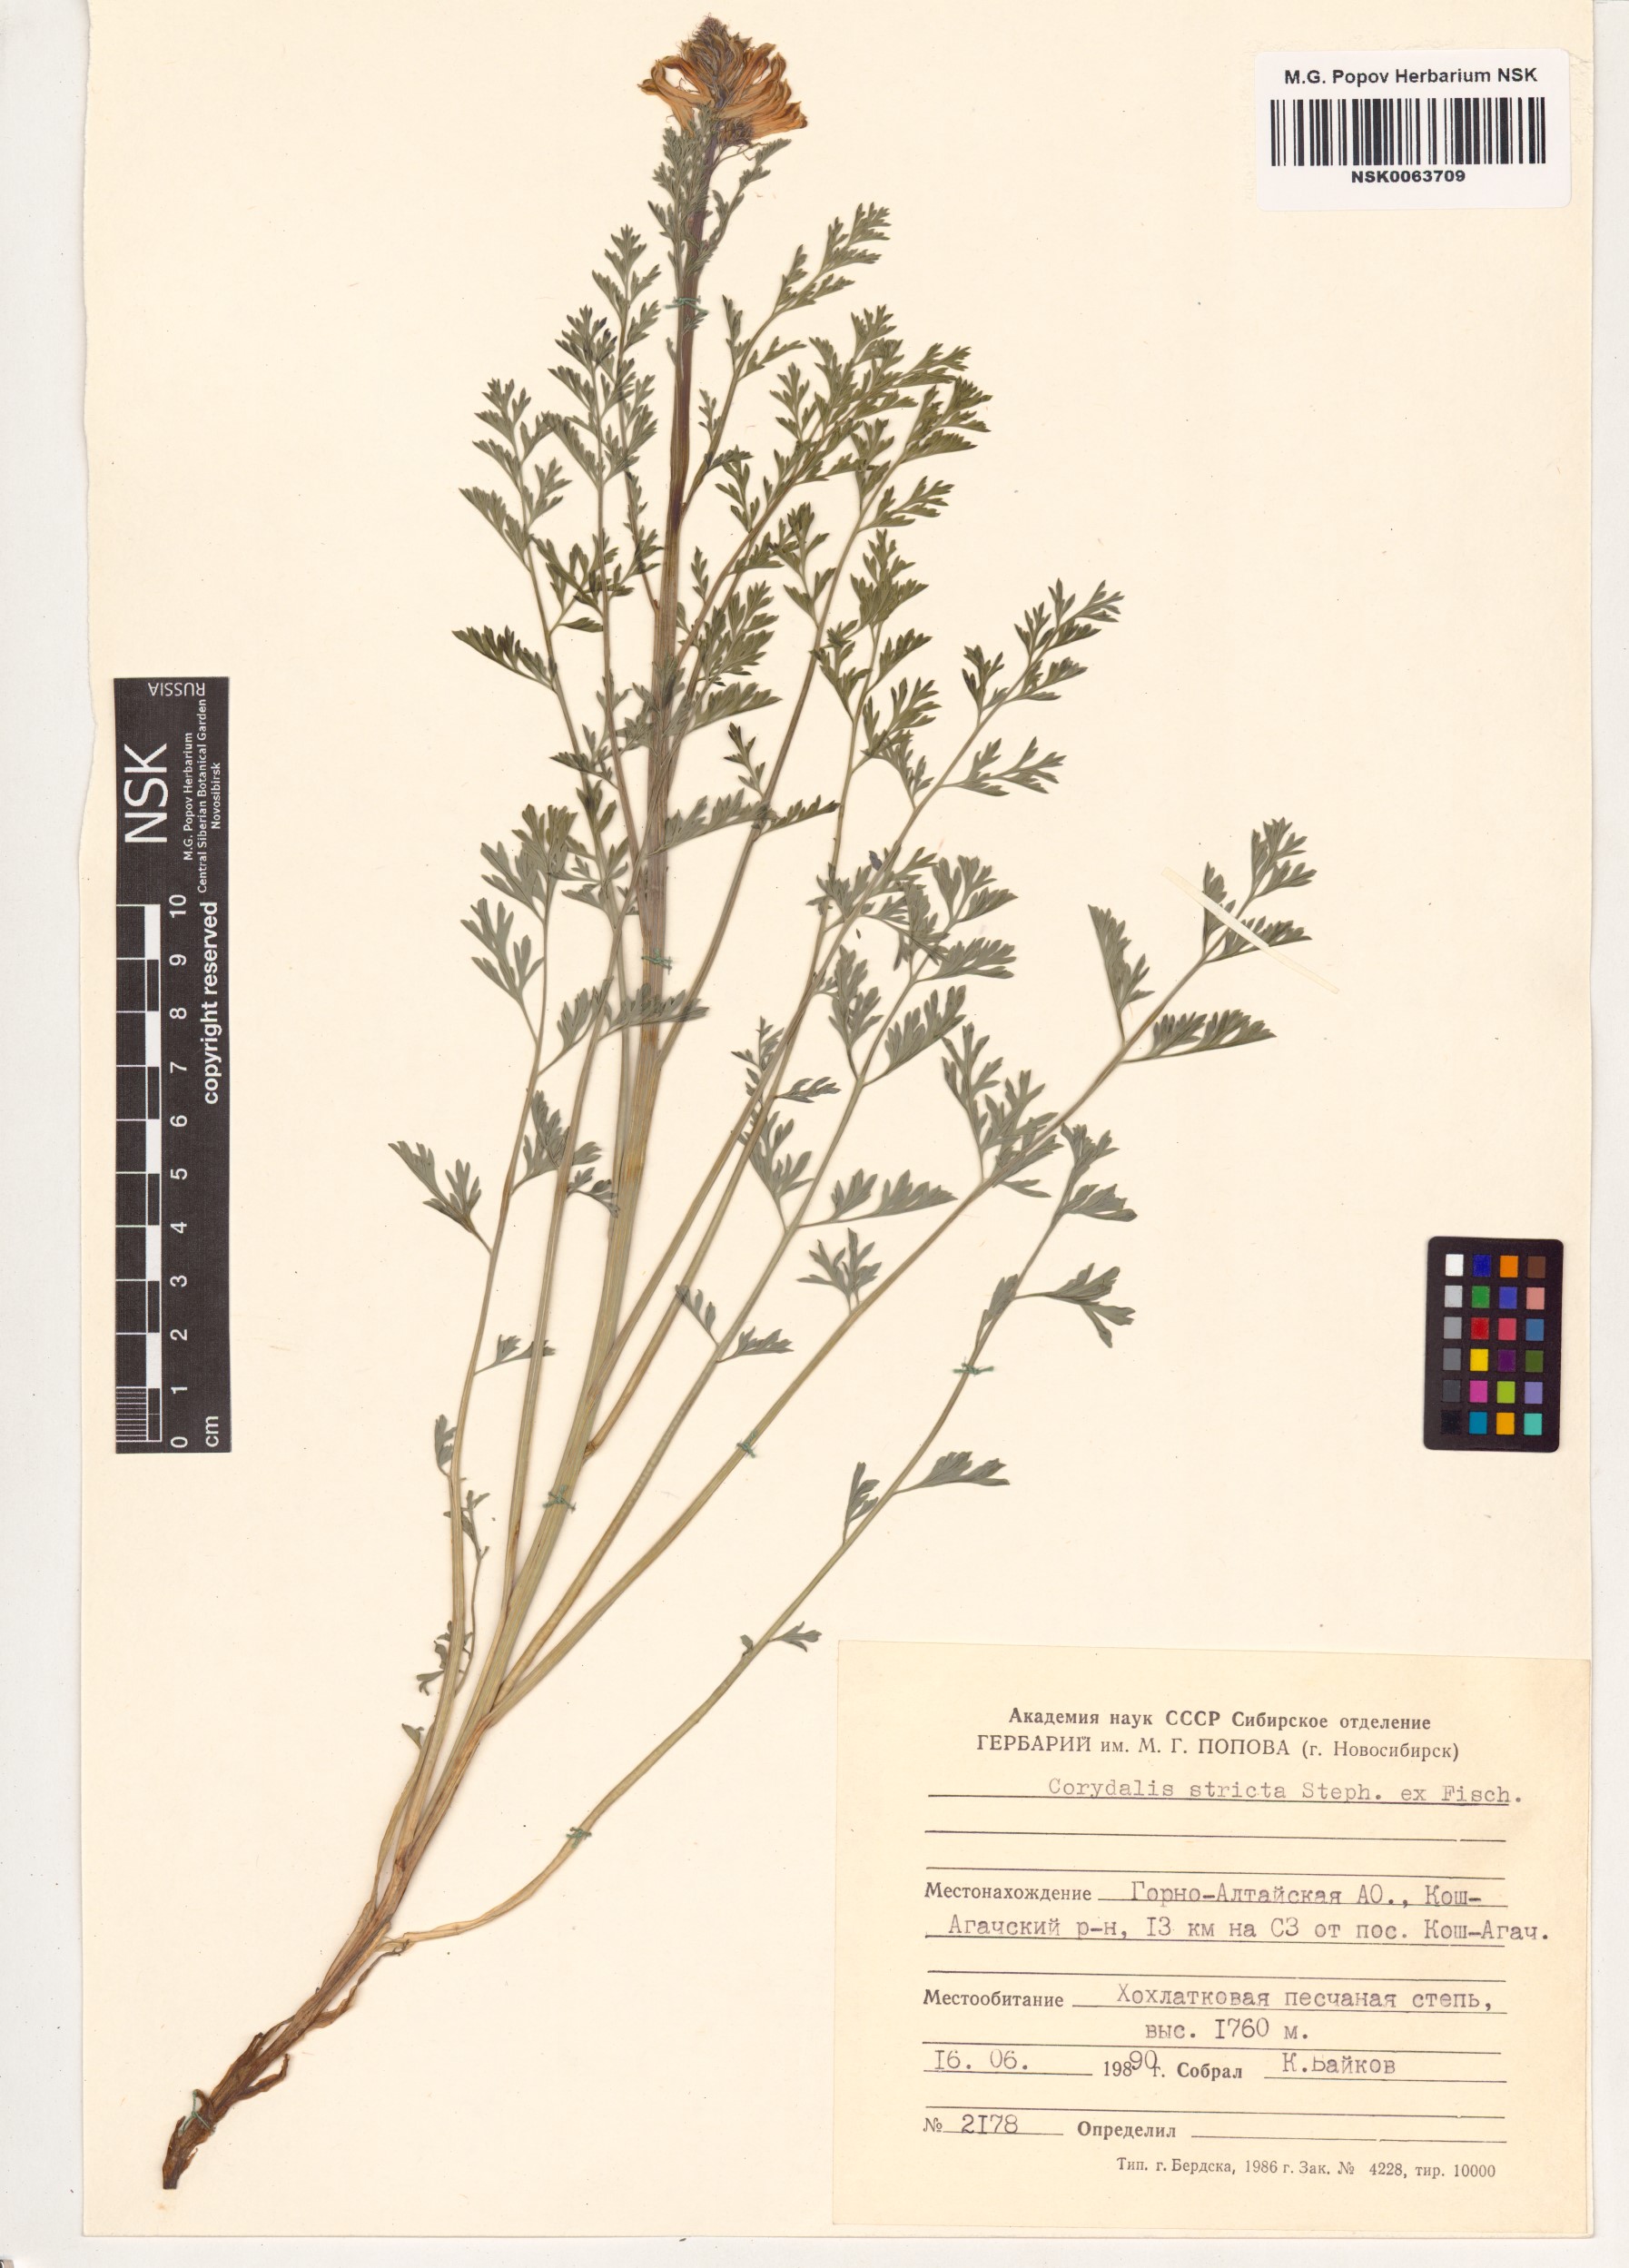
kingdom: Plantae
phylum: Tracheophyta
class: Magnoliopsida
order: Ranunculales
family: Papaveraceae
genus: Corydalis
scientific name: Corydalis stricta
